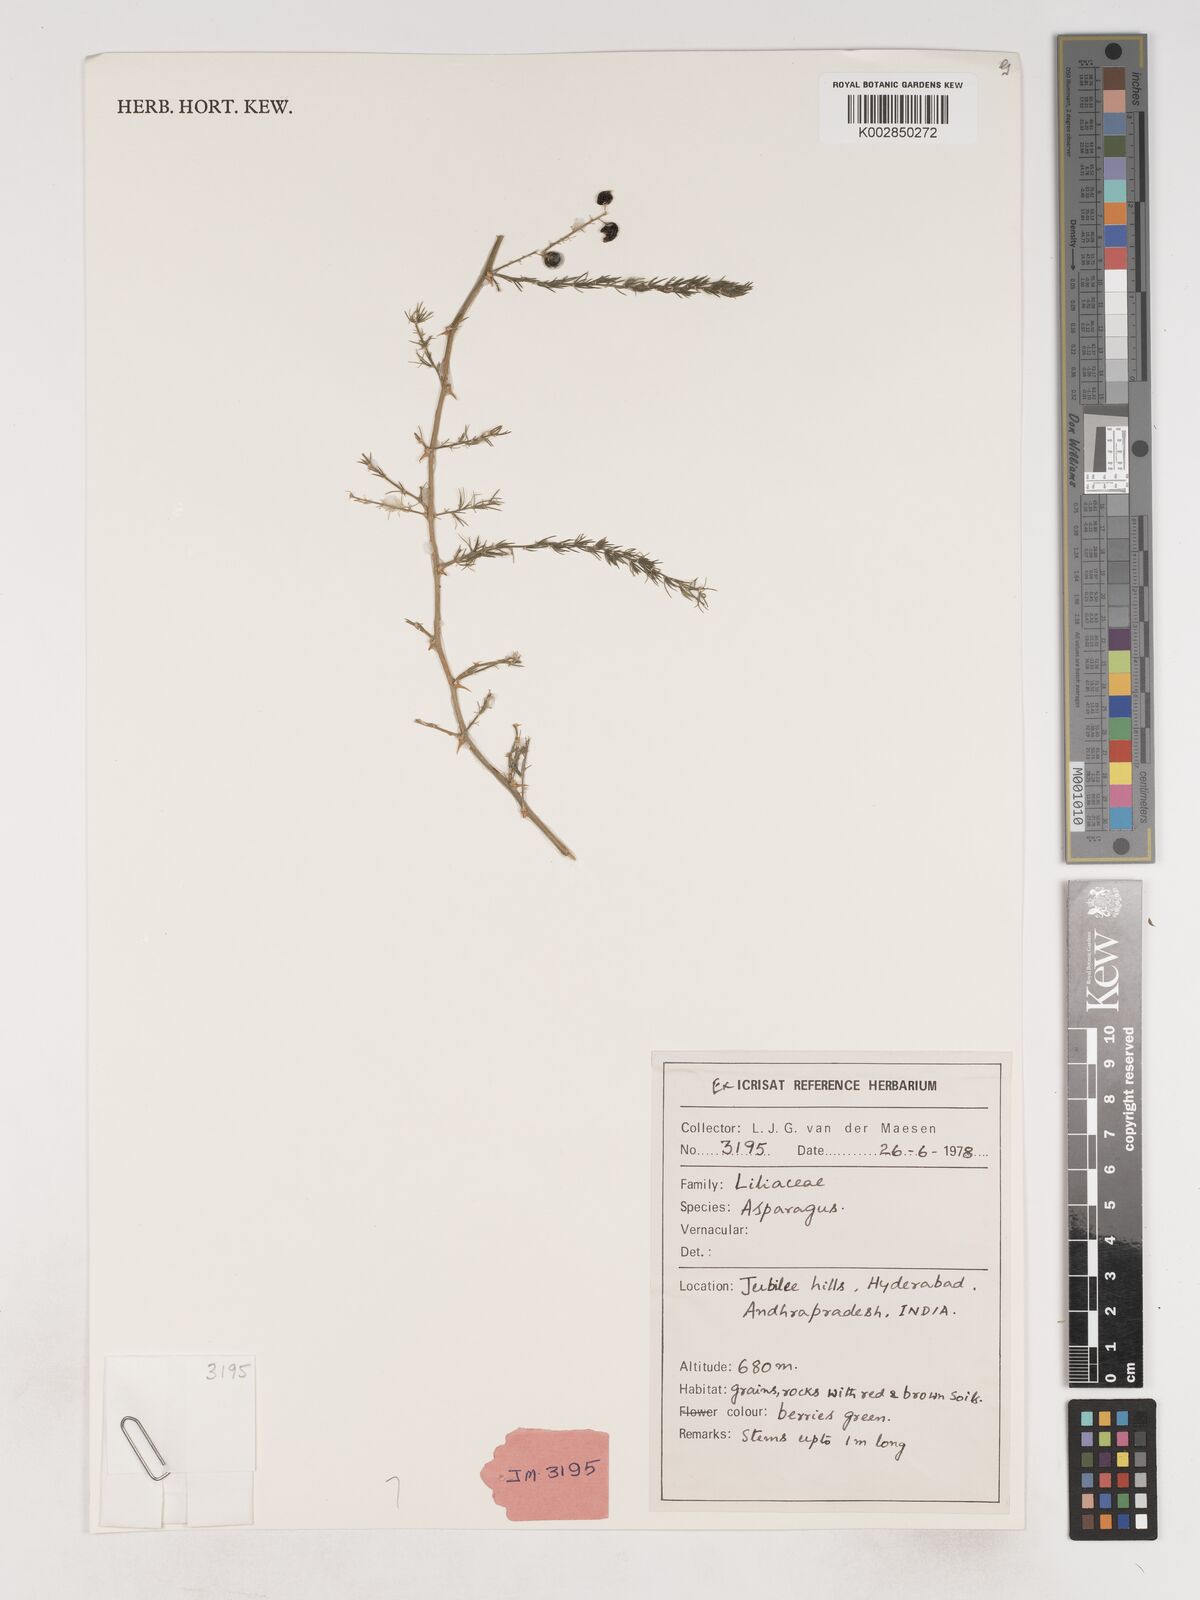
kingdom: Plantae
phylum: Tracheophyta
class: Liliopsida
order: Asparagales
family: Asparagaceae
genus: Asparagus
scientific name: Asparagus
